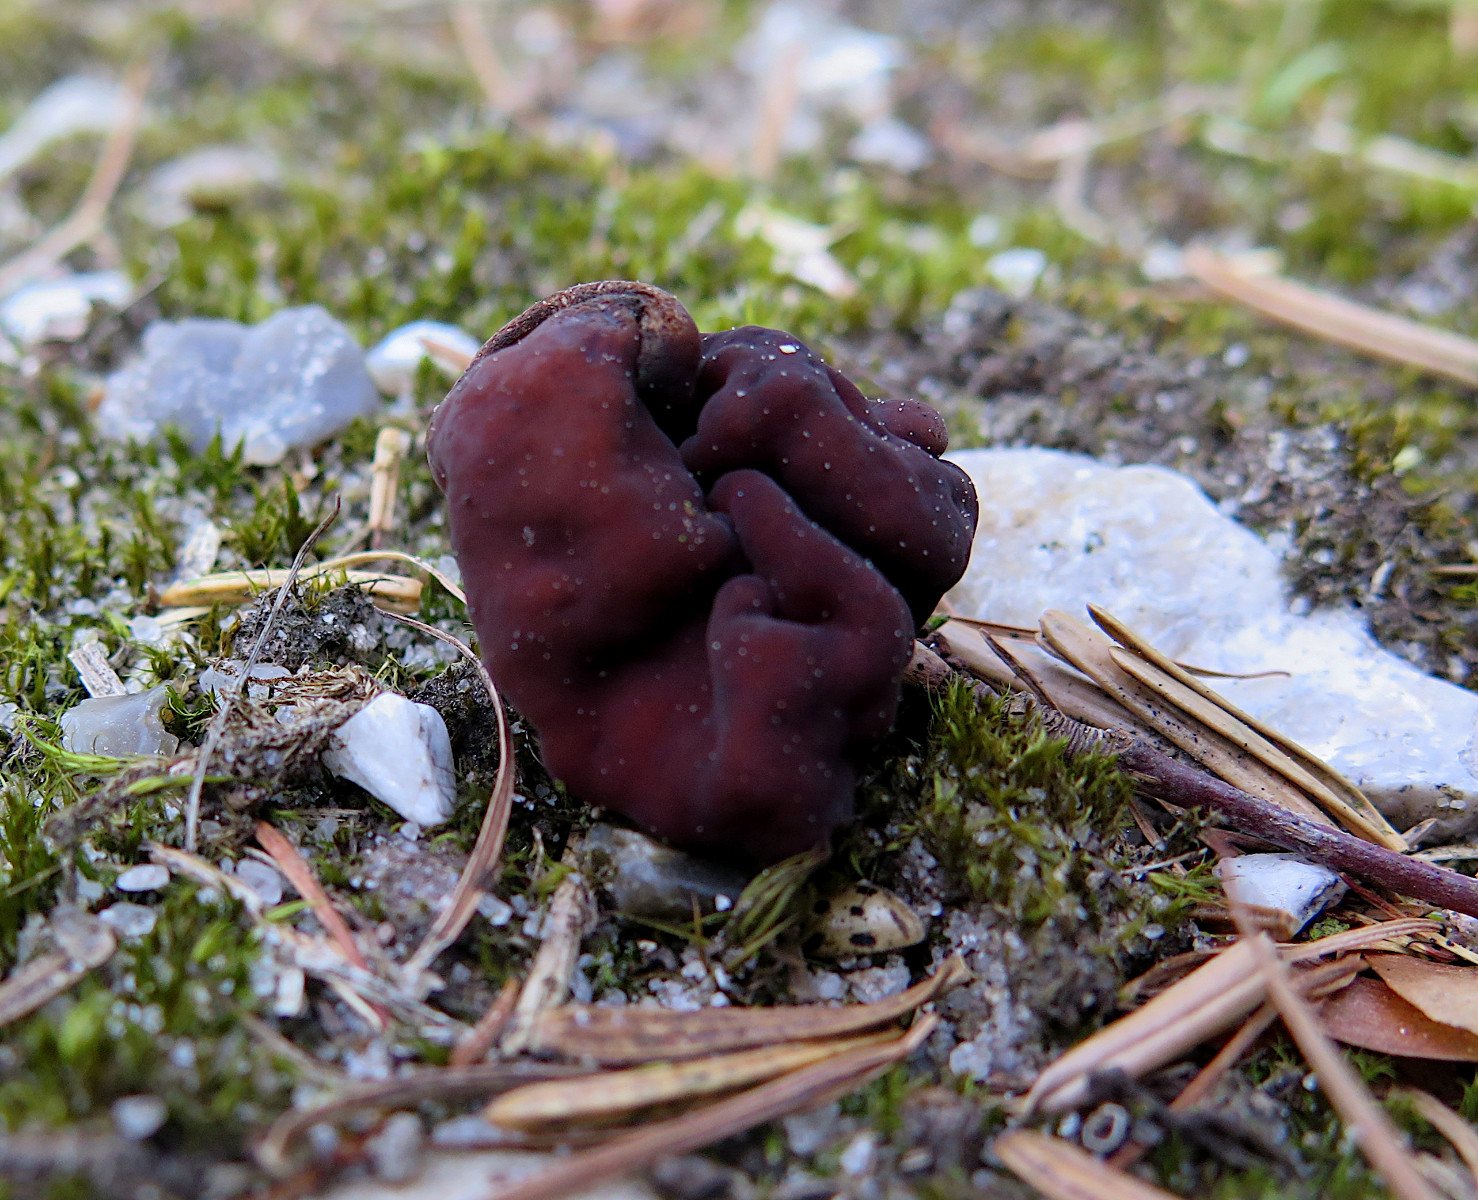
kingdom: Fungi
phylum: Ascomycota
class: Pezizomycetes
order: Pezizales
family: Discinaceae
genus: Gyromitra
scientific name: Gyromitra esculenta
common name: ægte stenmorkel
